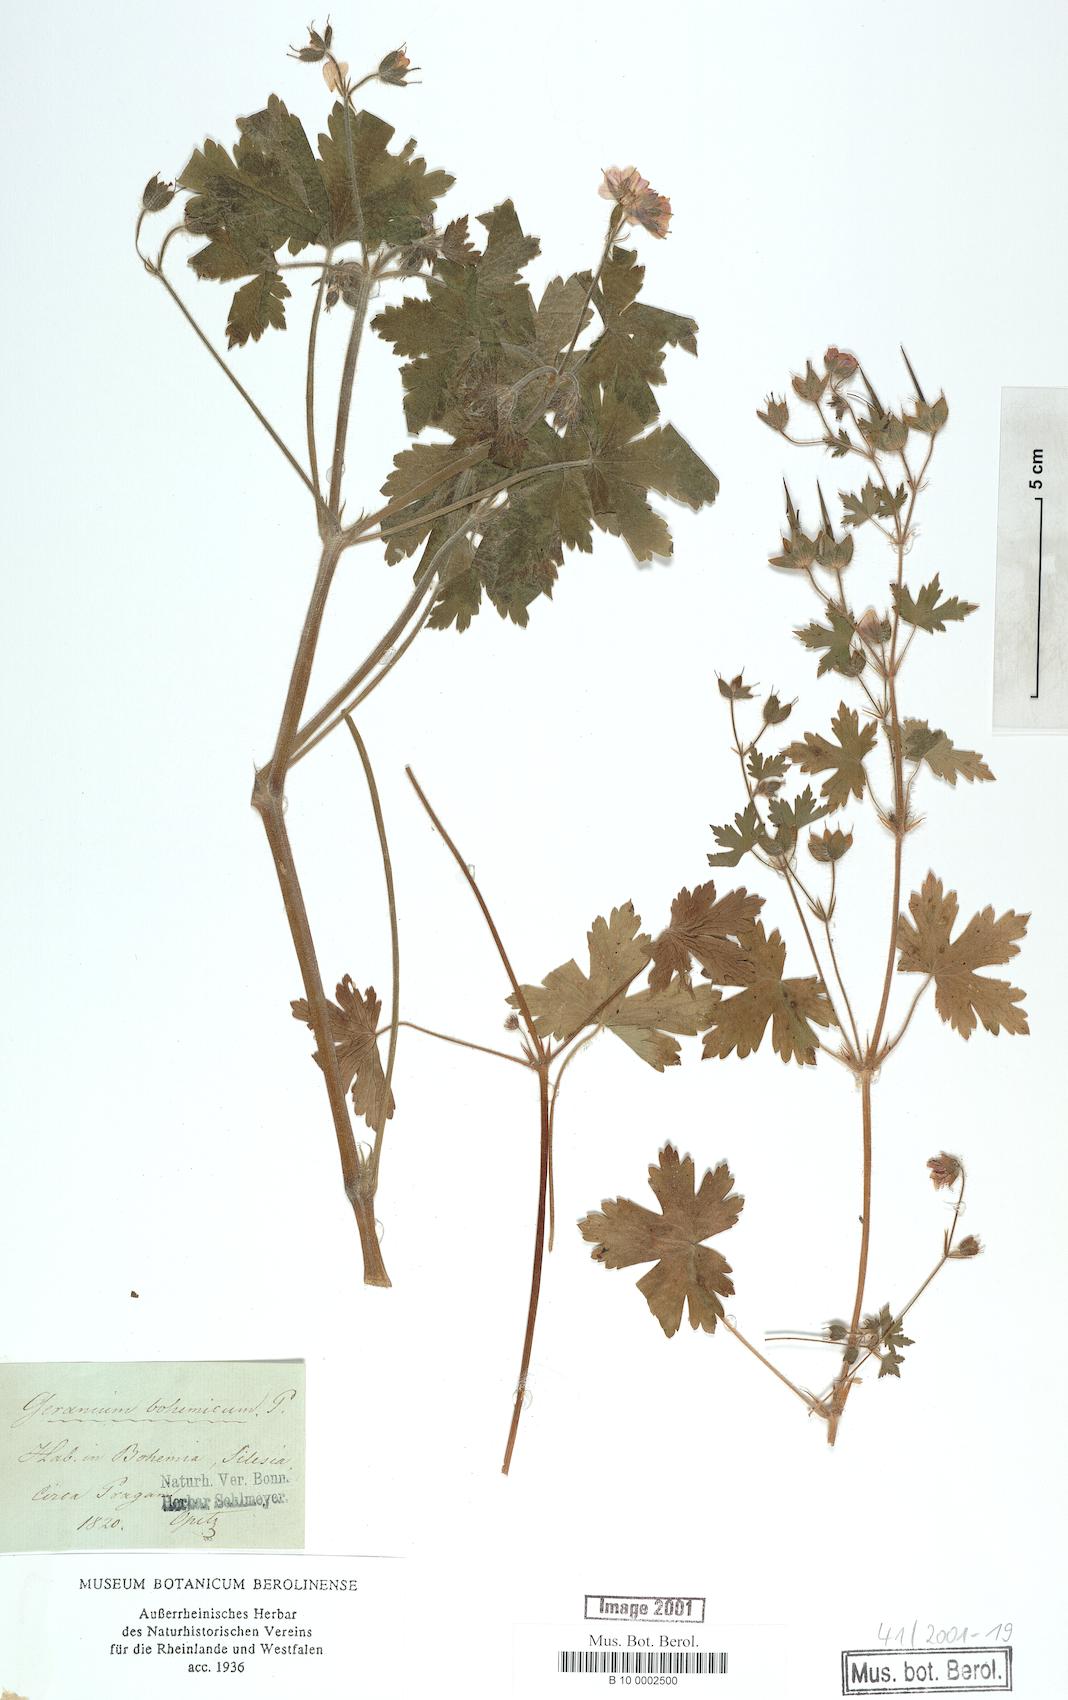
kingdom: Plantae
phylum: Tracheophyta
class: Magnoliopsida
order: Geraniales
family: Geraniaceae
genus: Geranium
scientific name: Geranium bohemicum
